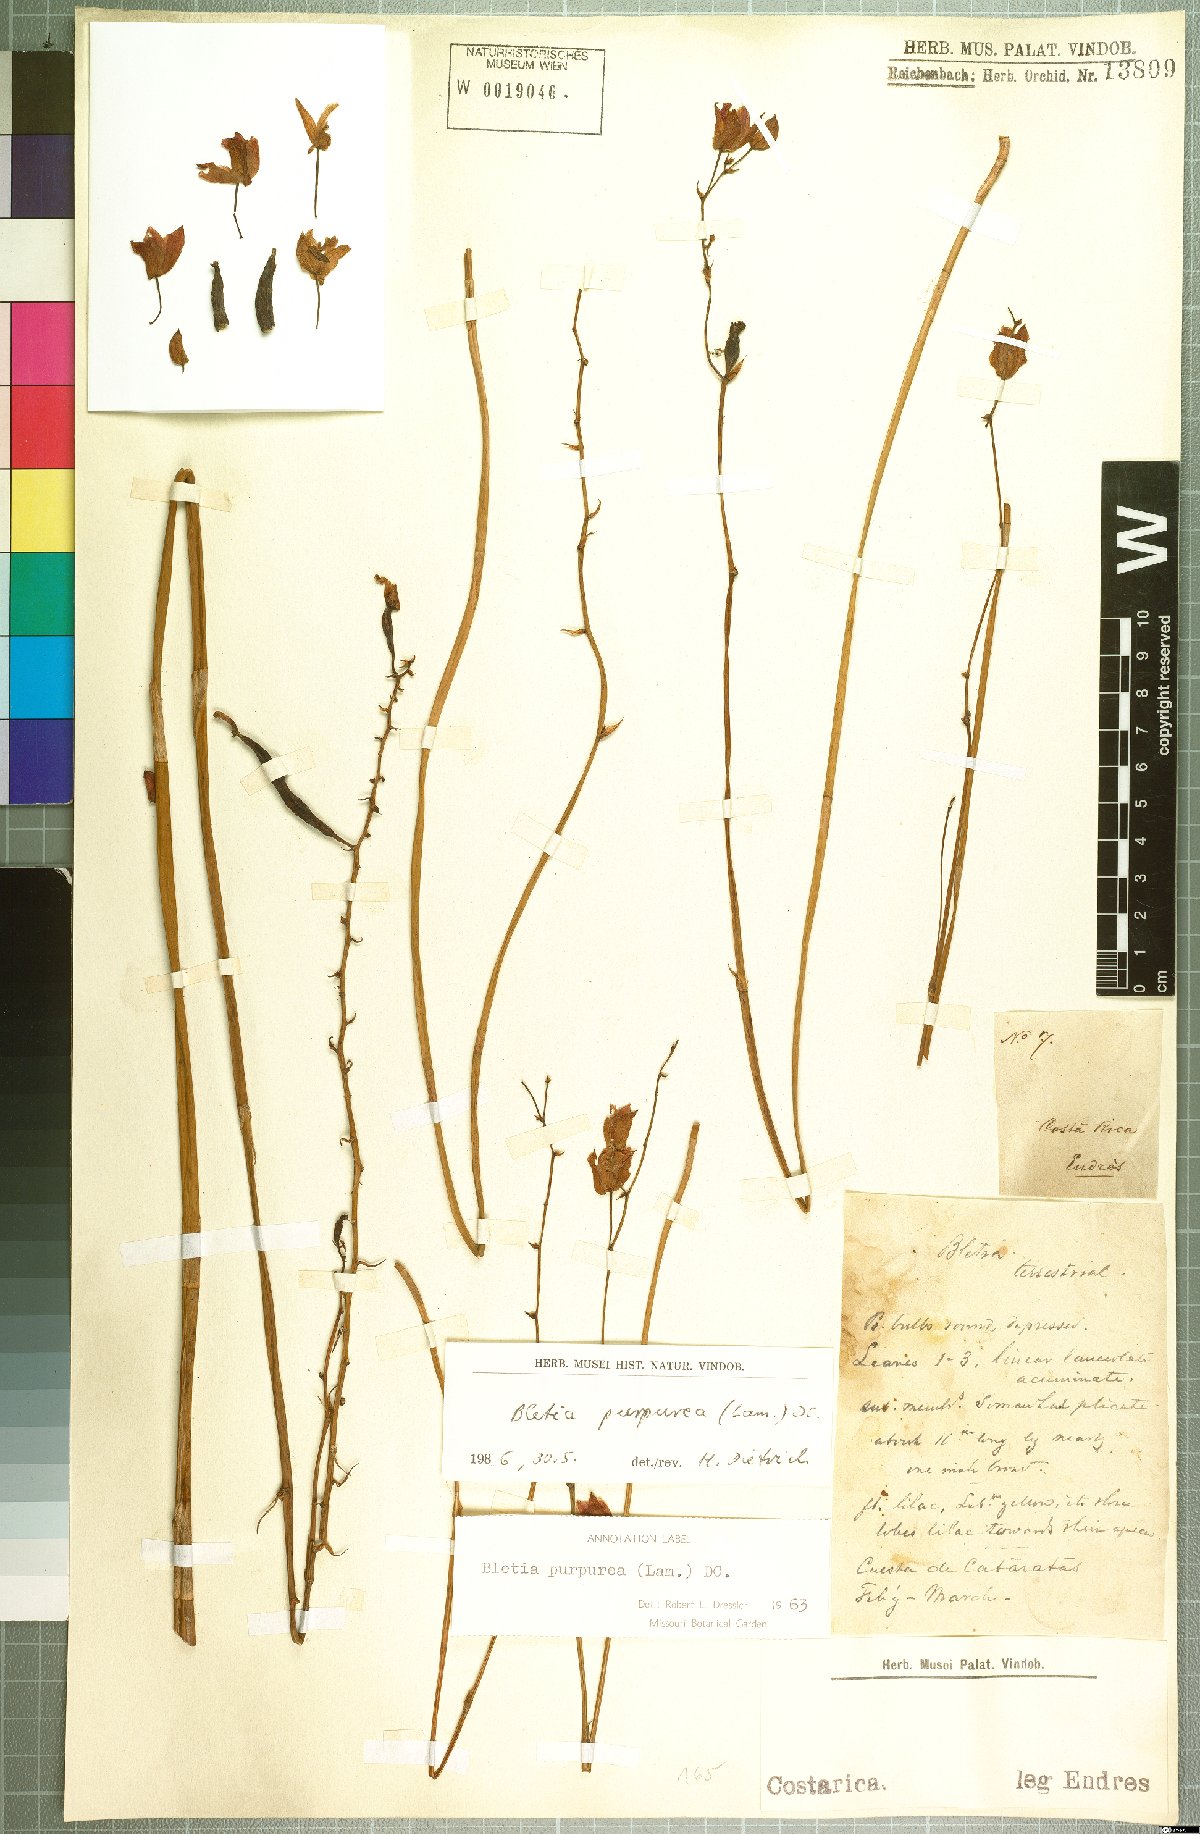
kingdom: Plantae
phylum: Tracheophyta
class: Liliopsida
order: Asparagales
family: Orchidaceae
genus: Bletia
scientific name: Bletia purpurea
